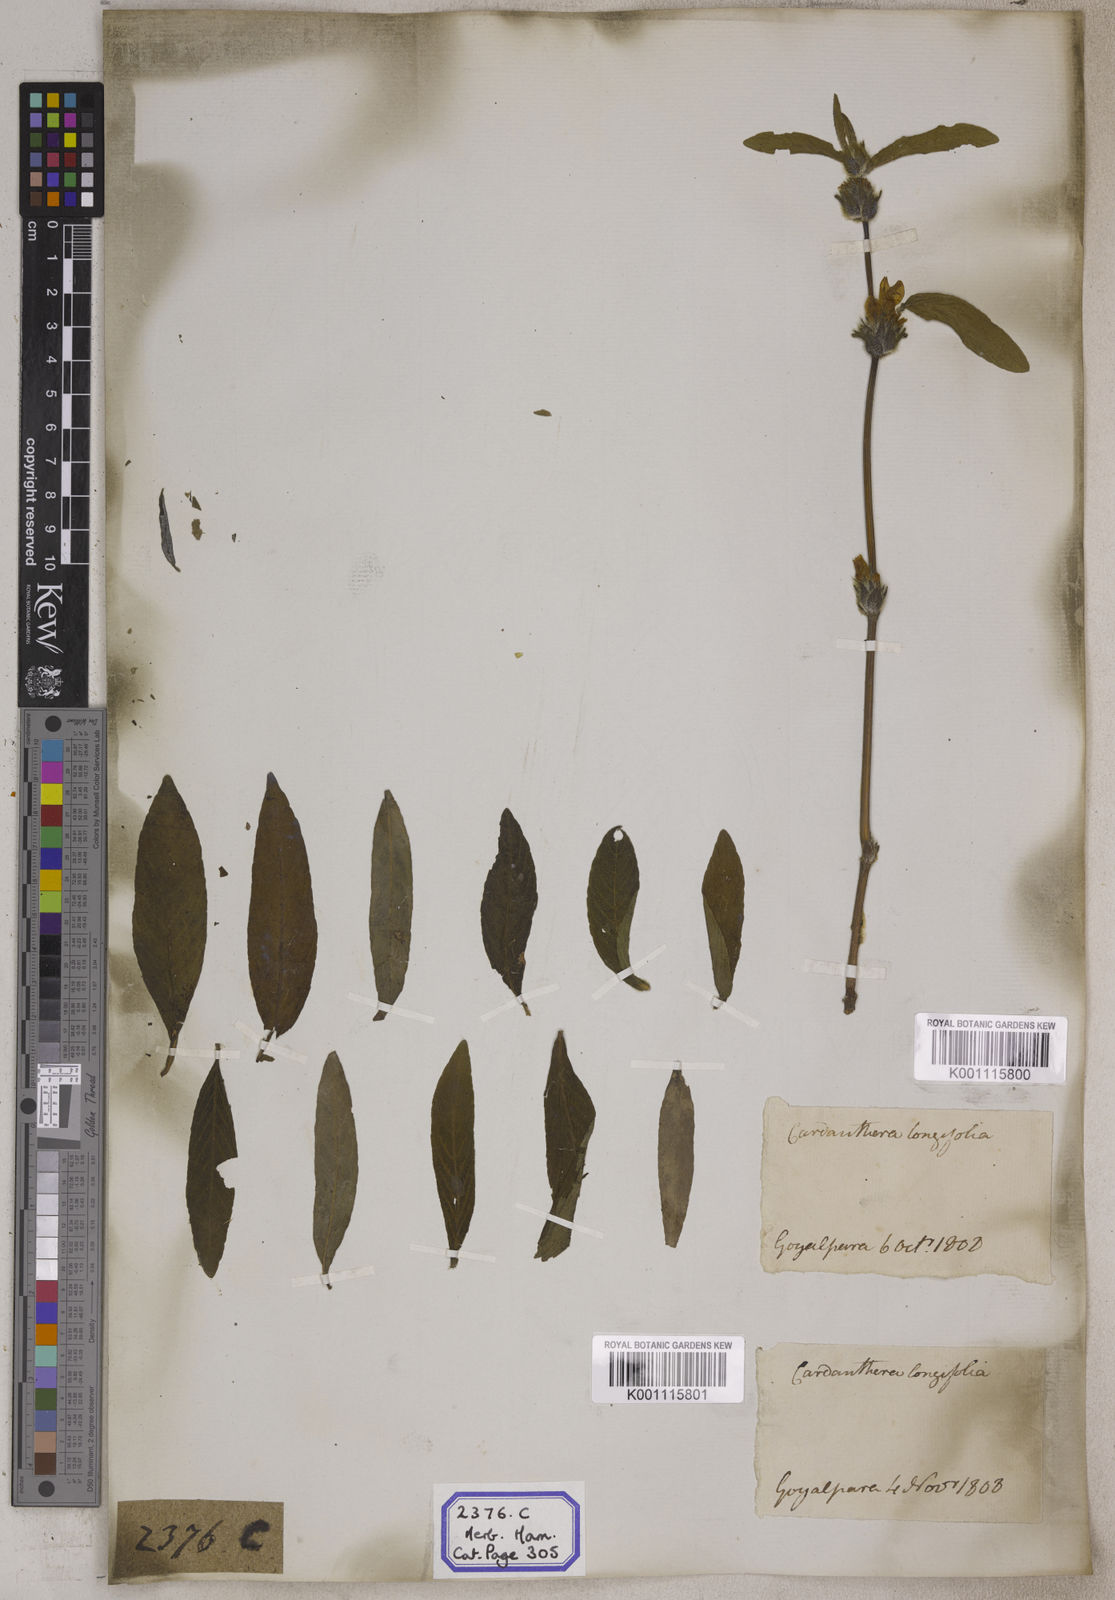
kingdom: Plantae
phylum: Tracheophyta
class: Magnoliopsida
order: Lamiales
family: Acanthaceae
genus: Hygrophila
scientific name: Hygrophila phlomoides
